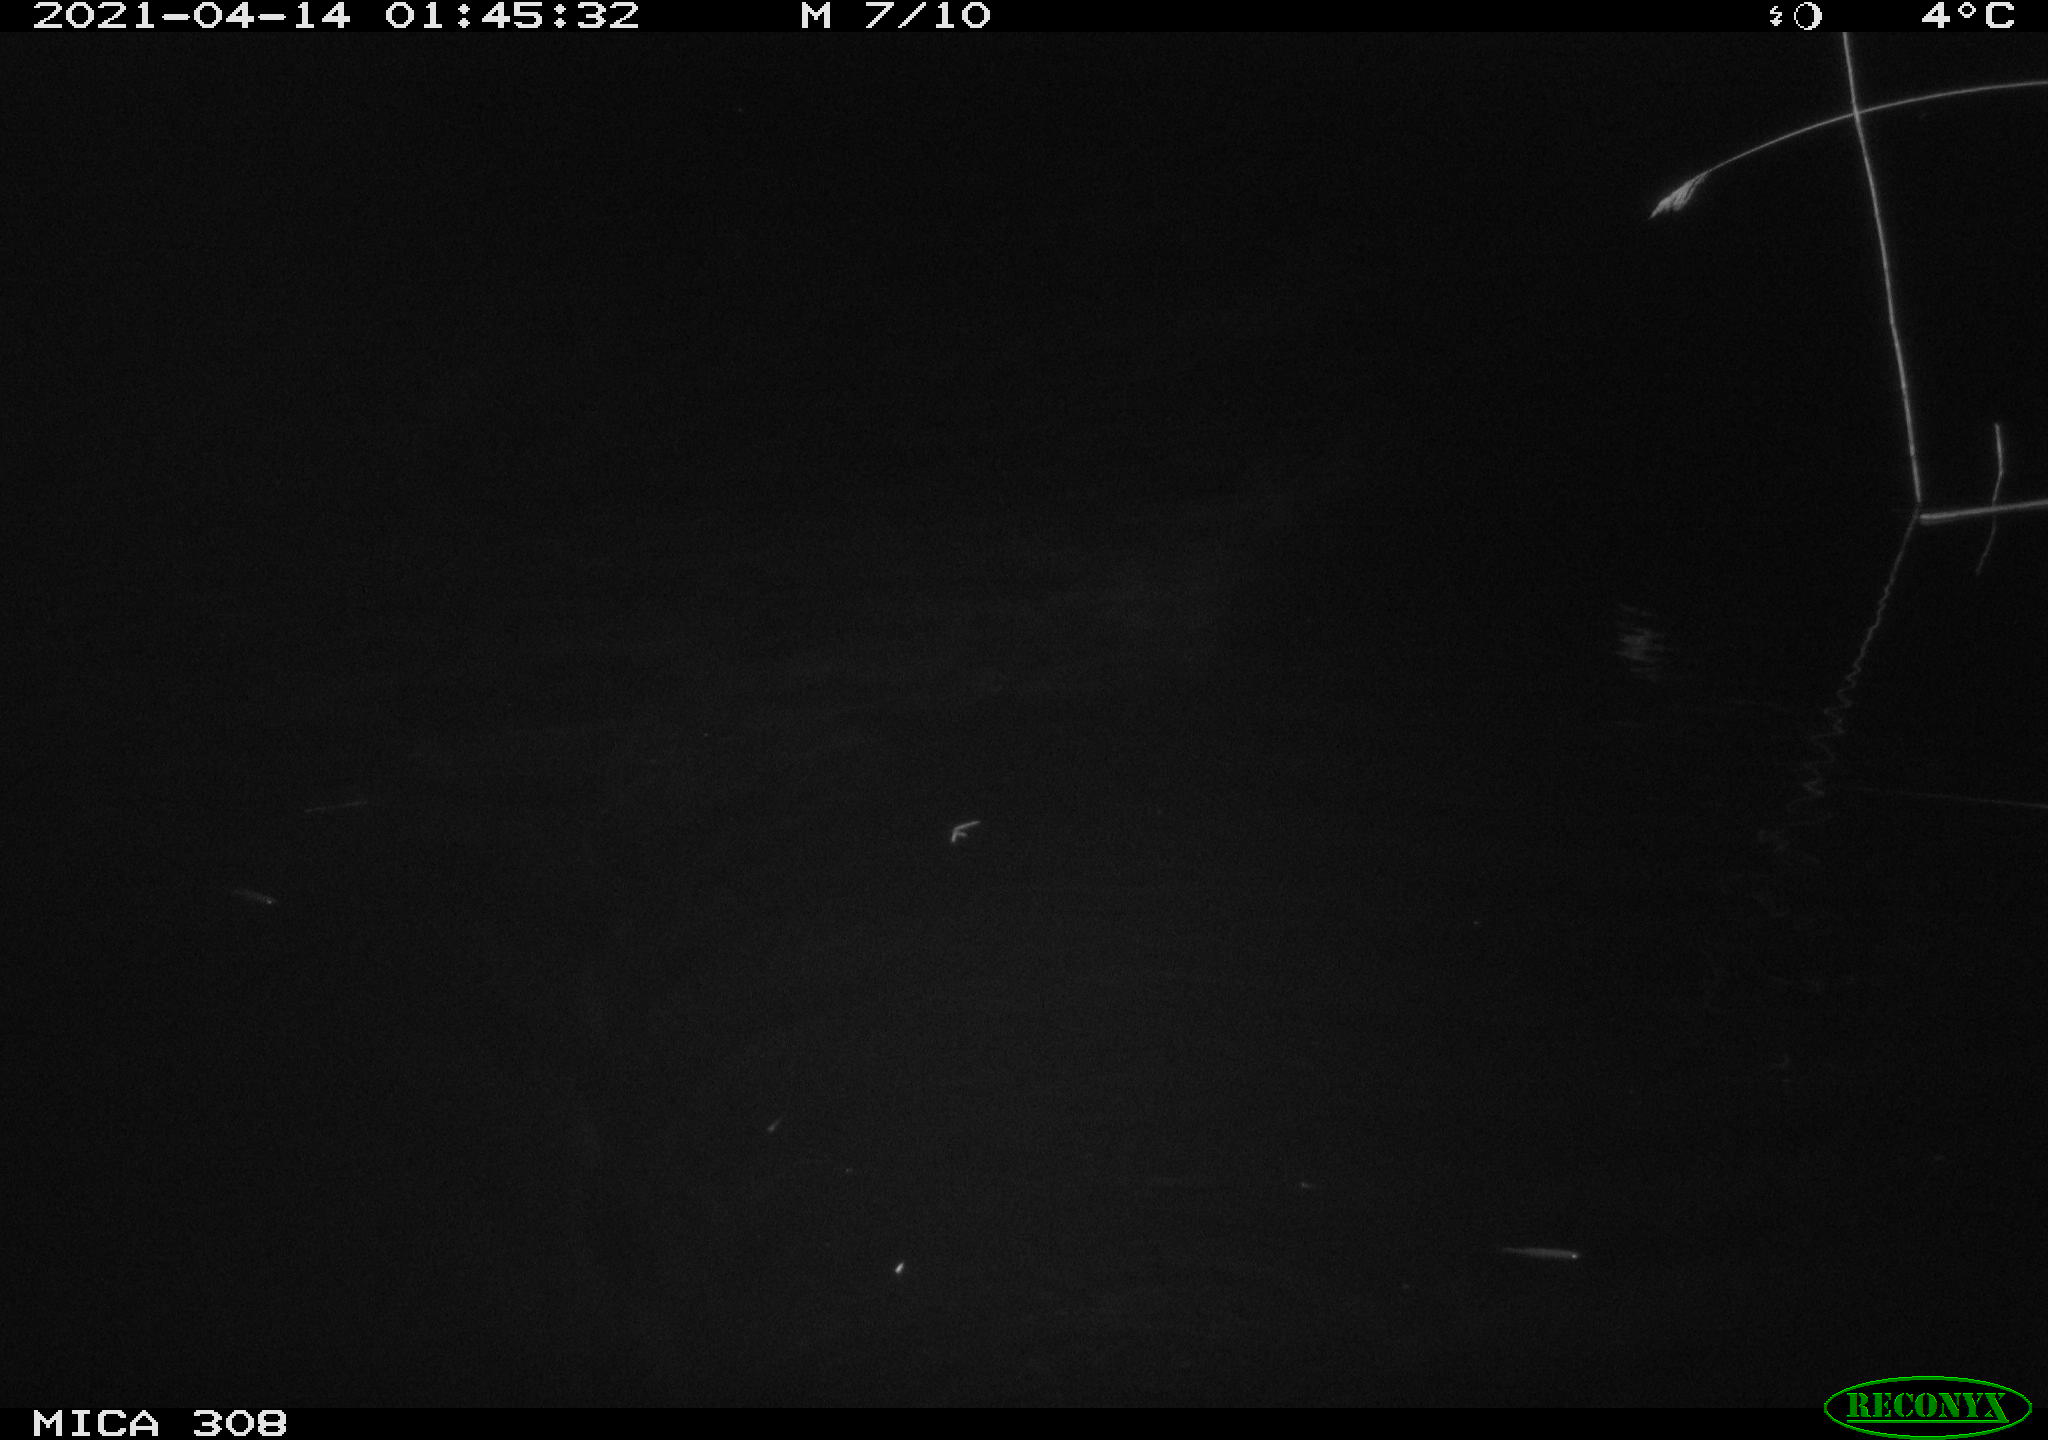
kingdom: Animalia
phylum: Chordata
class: Mammalia
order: Rodentia
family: Cricetidae
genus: Ondatra
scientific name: Ondatra zibethicus
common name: Muskrat
